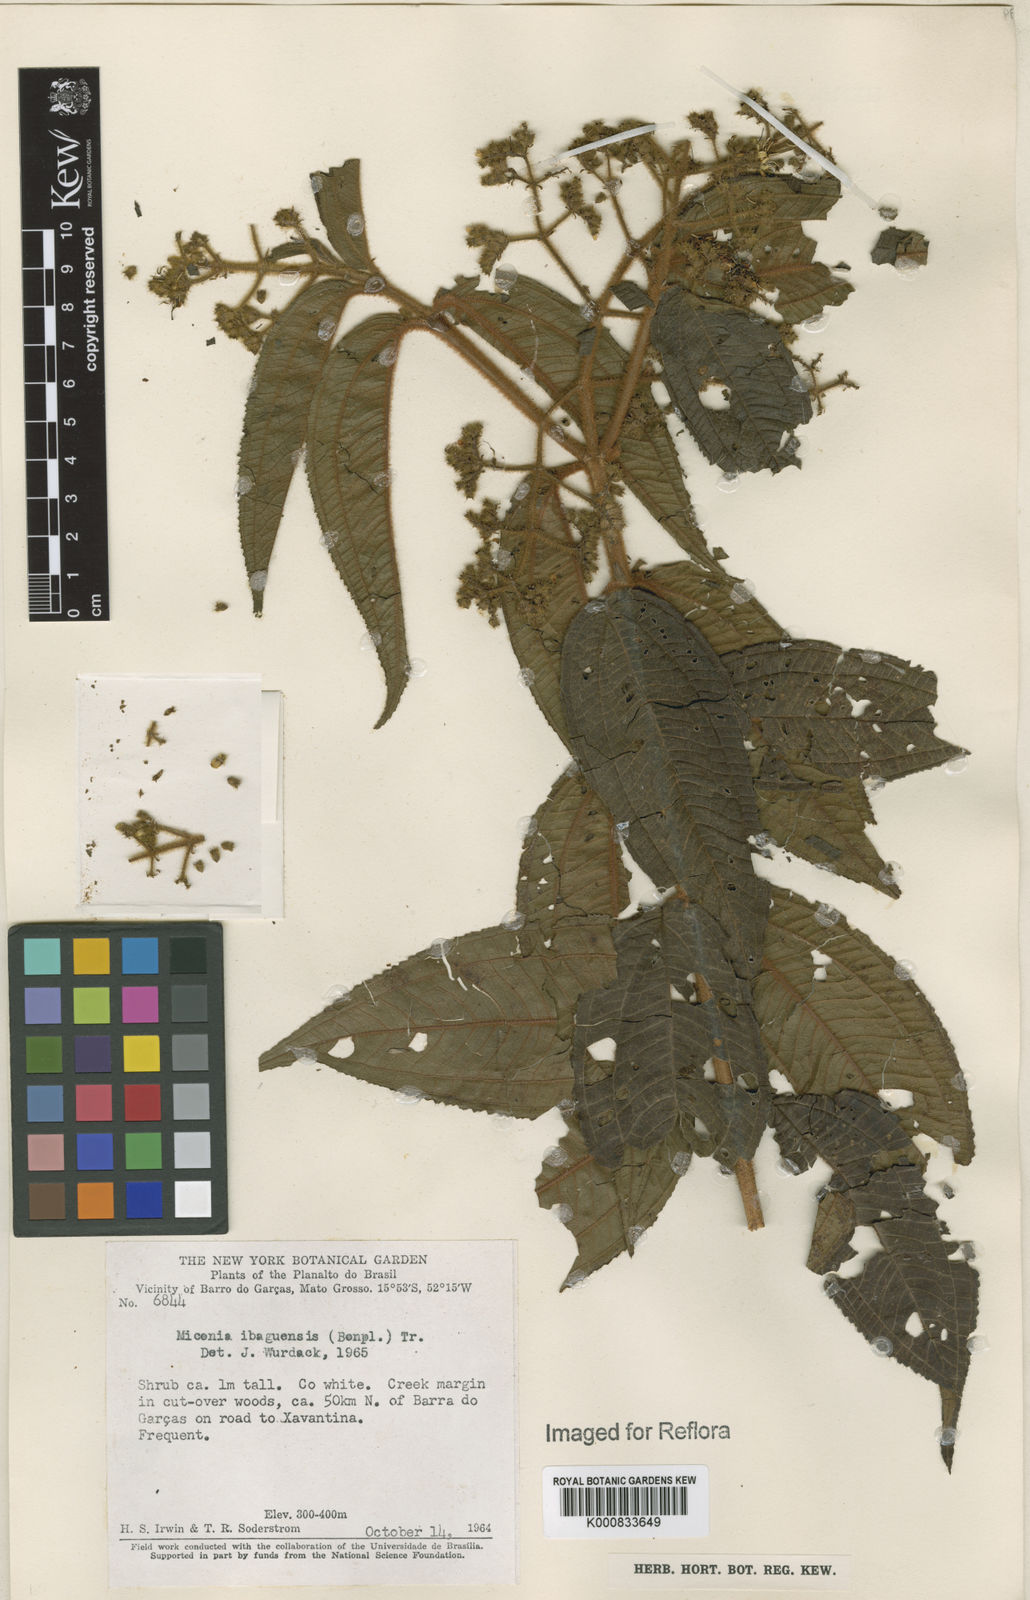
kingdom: Plantae
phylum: Tracheophyta
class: Magnoliopsida
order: Myrtales
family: Melastomataceae
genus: Miconia
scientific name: Miconia ibaguensis
